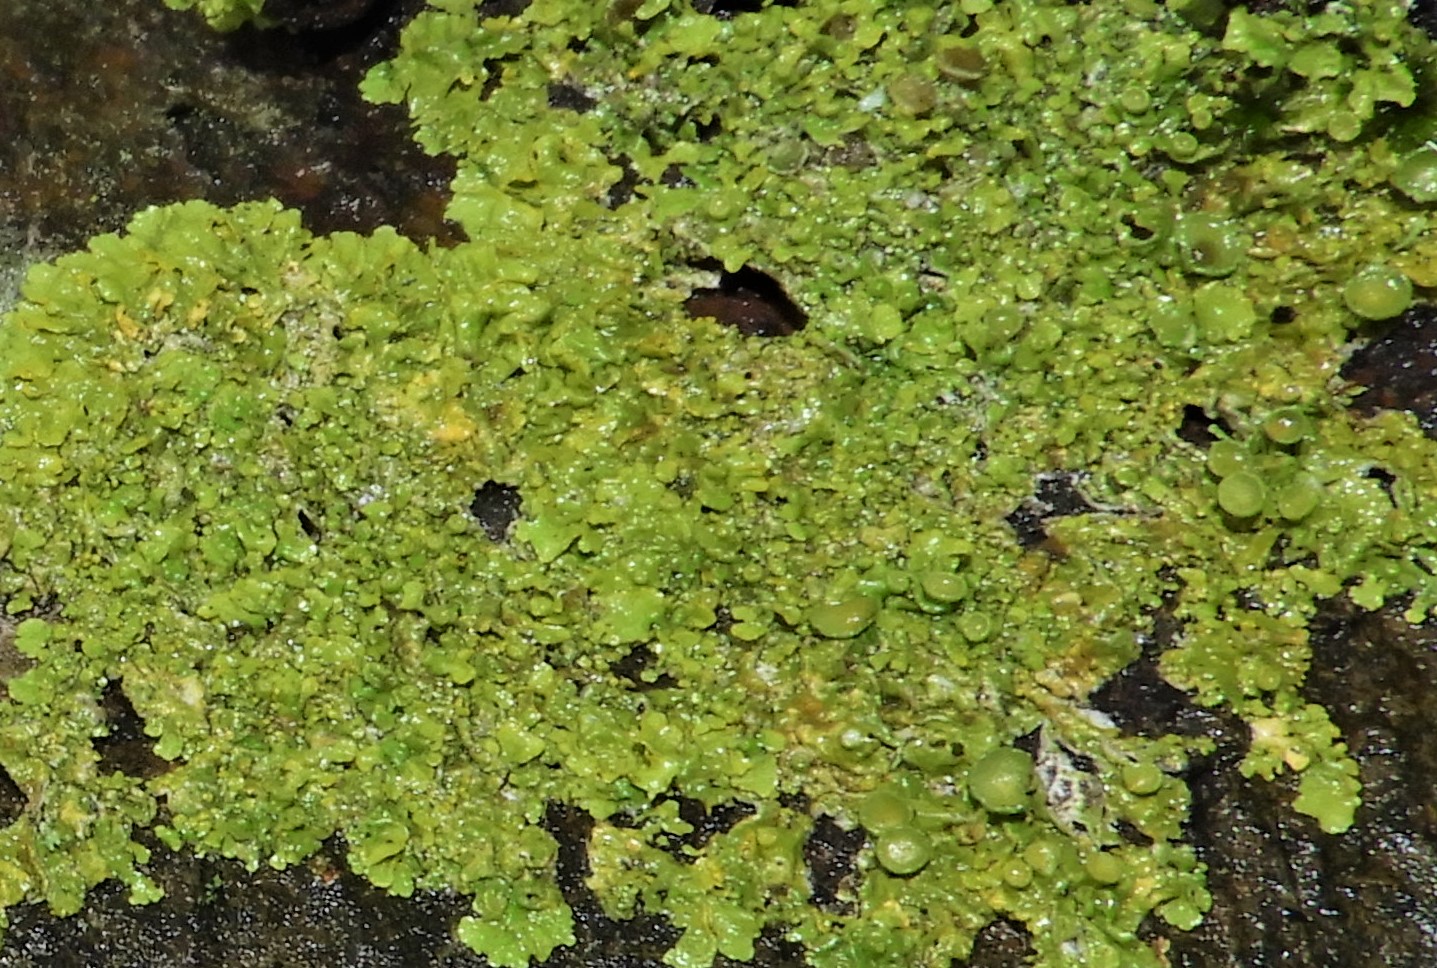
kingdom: Fungi
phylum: Ascomycota
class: Lecanoromycetes
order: Teloschistales
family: Teloschistaceae
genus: Xanthoria
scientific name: Xanthoria parietina
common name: almindelig væggelav
